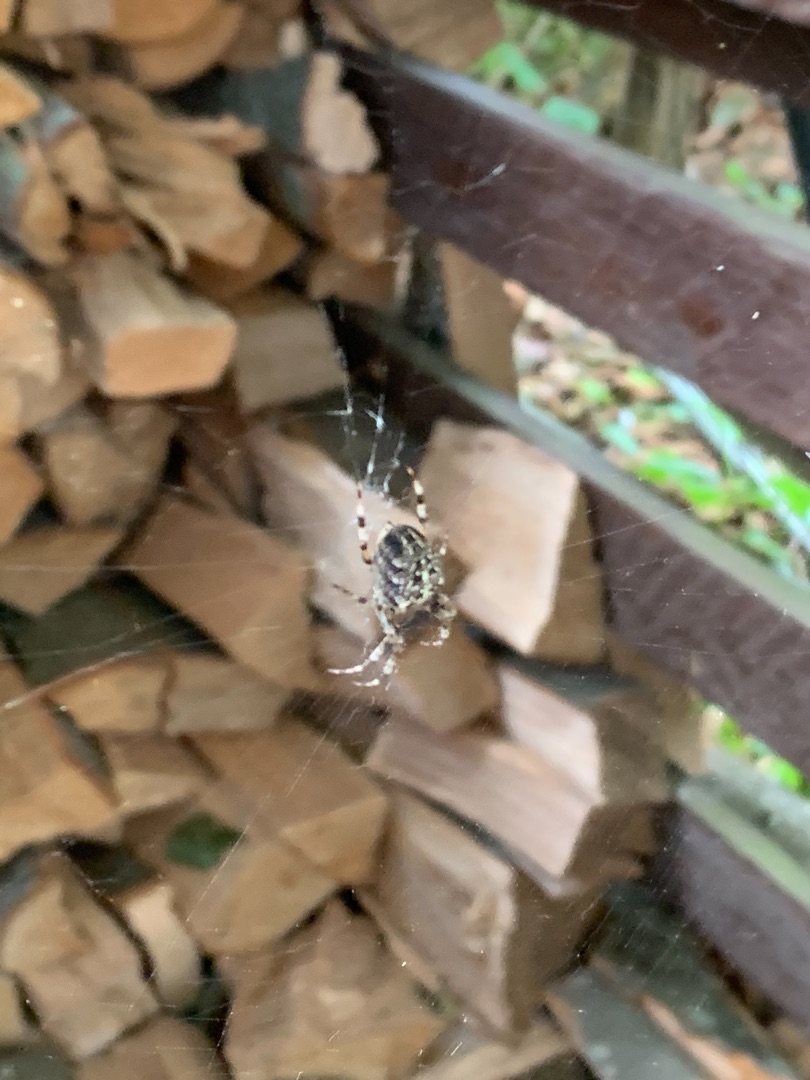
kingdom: Animalia
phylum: Arthropoda
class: Arachnida
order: Araneae
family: Araneidae
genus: Araneus
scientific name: Araneus diadematus
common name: Korsedderkop
